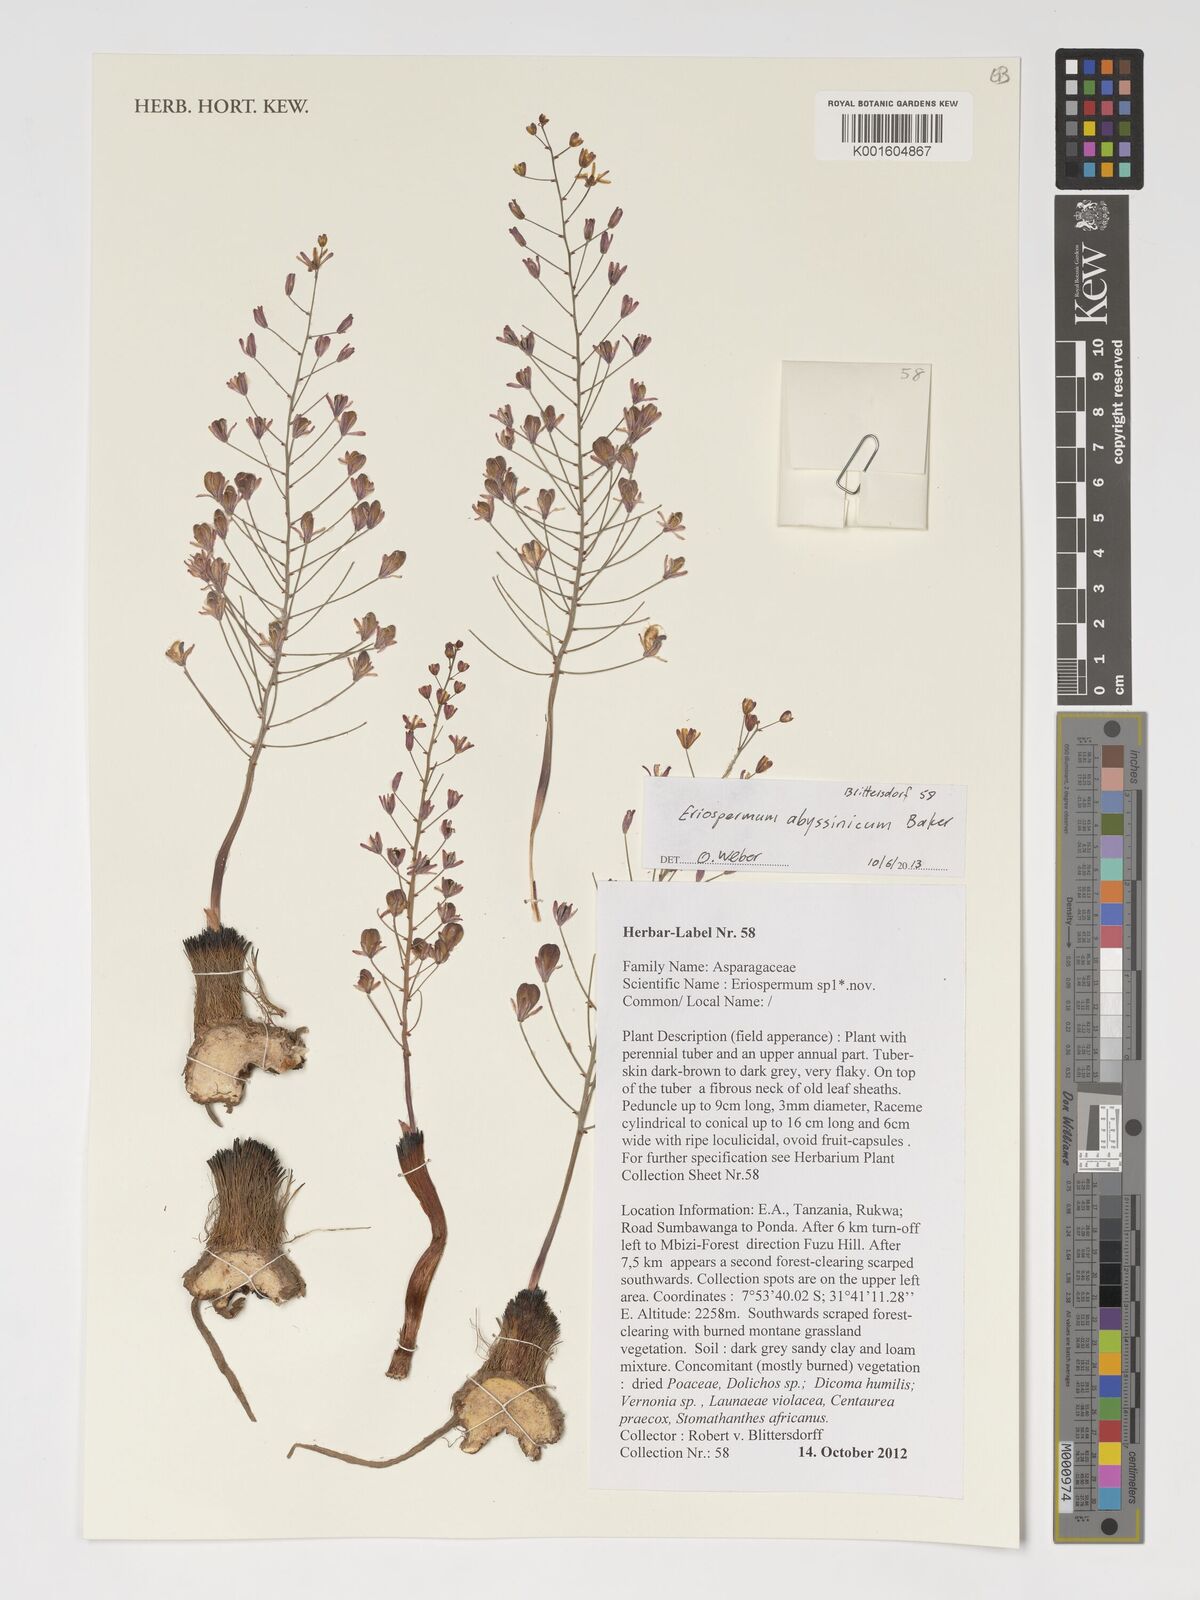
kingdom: Plantae
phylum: Tracheophyta
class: Liliopsida
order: Asparagales
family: Asparagaceae
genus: Eriospermum
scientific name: Eriospermum abyssinicum
